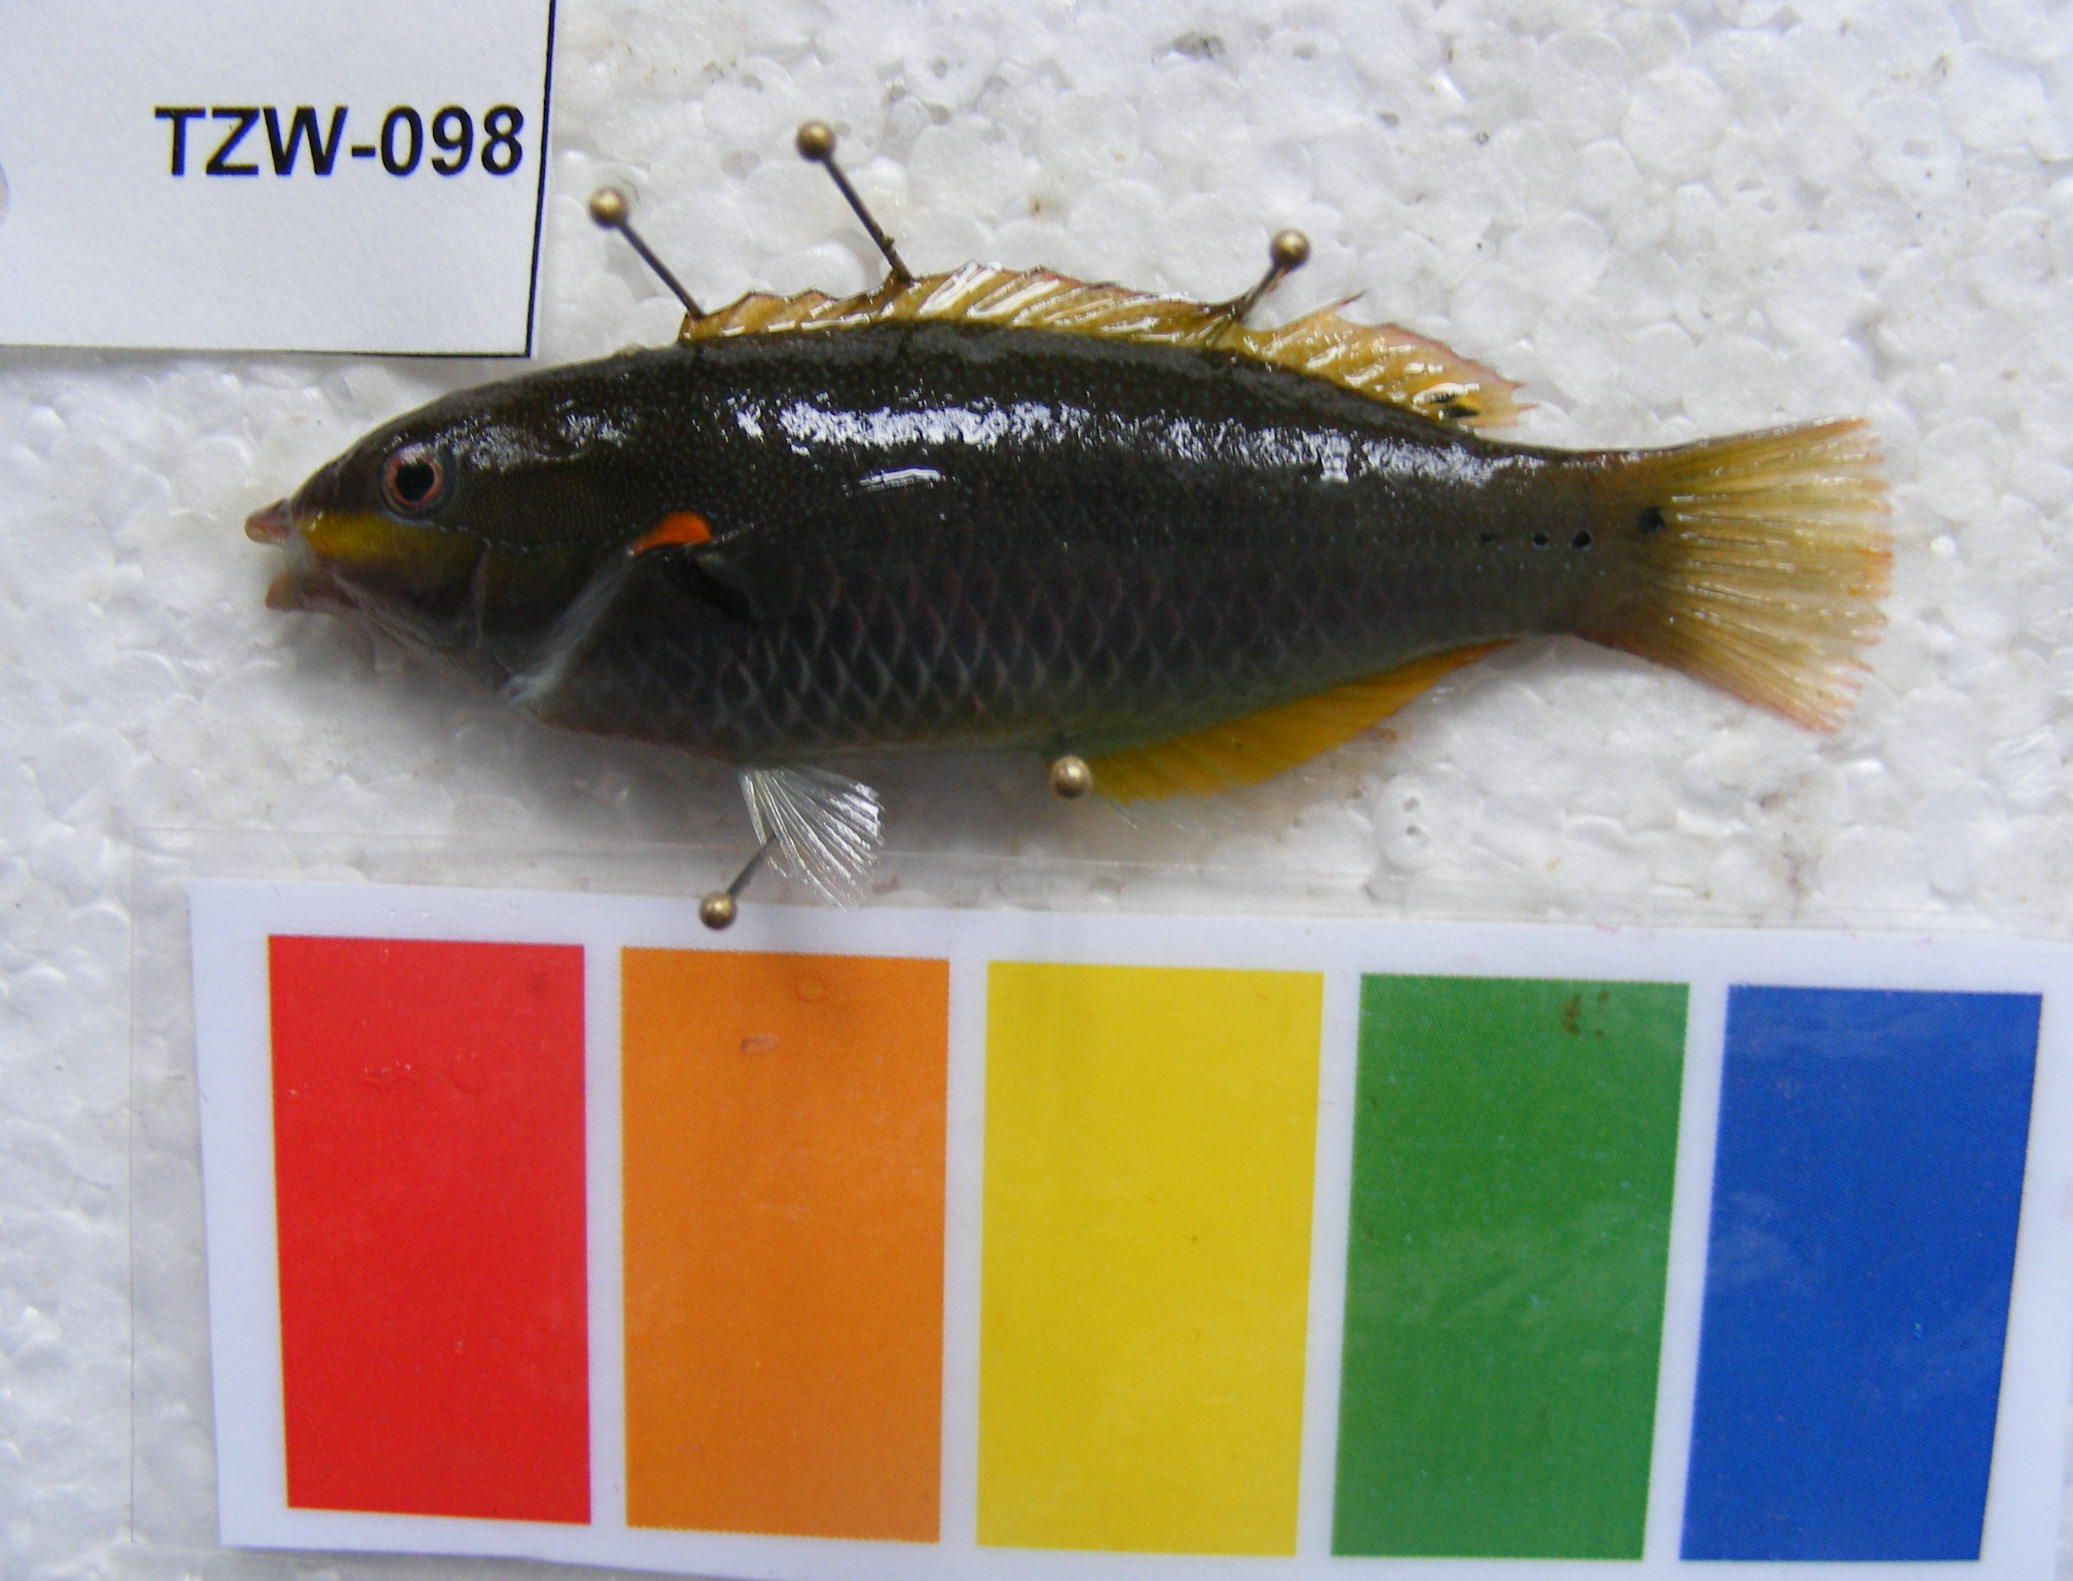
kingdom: Animalia
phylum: Chordata
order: Perciformes
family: Labridae
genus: Stethojulis
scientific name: Stethojulis albovittata
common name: Bluelined wrasse
